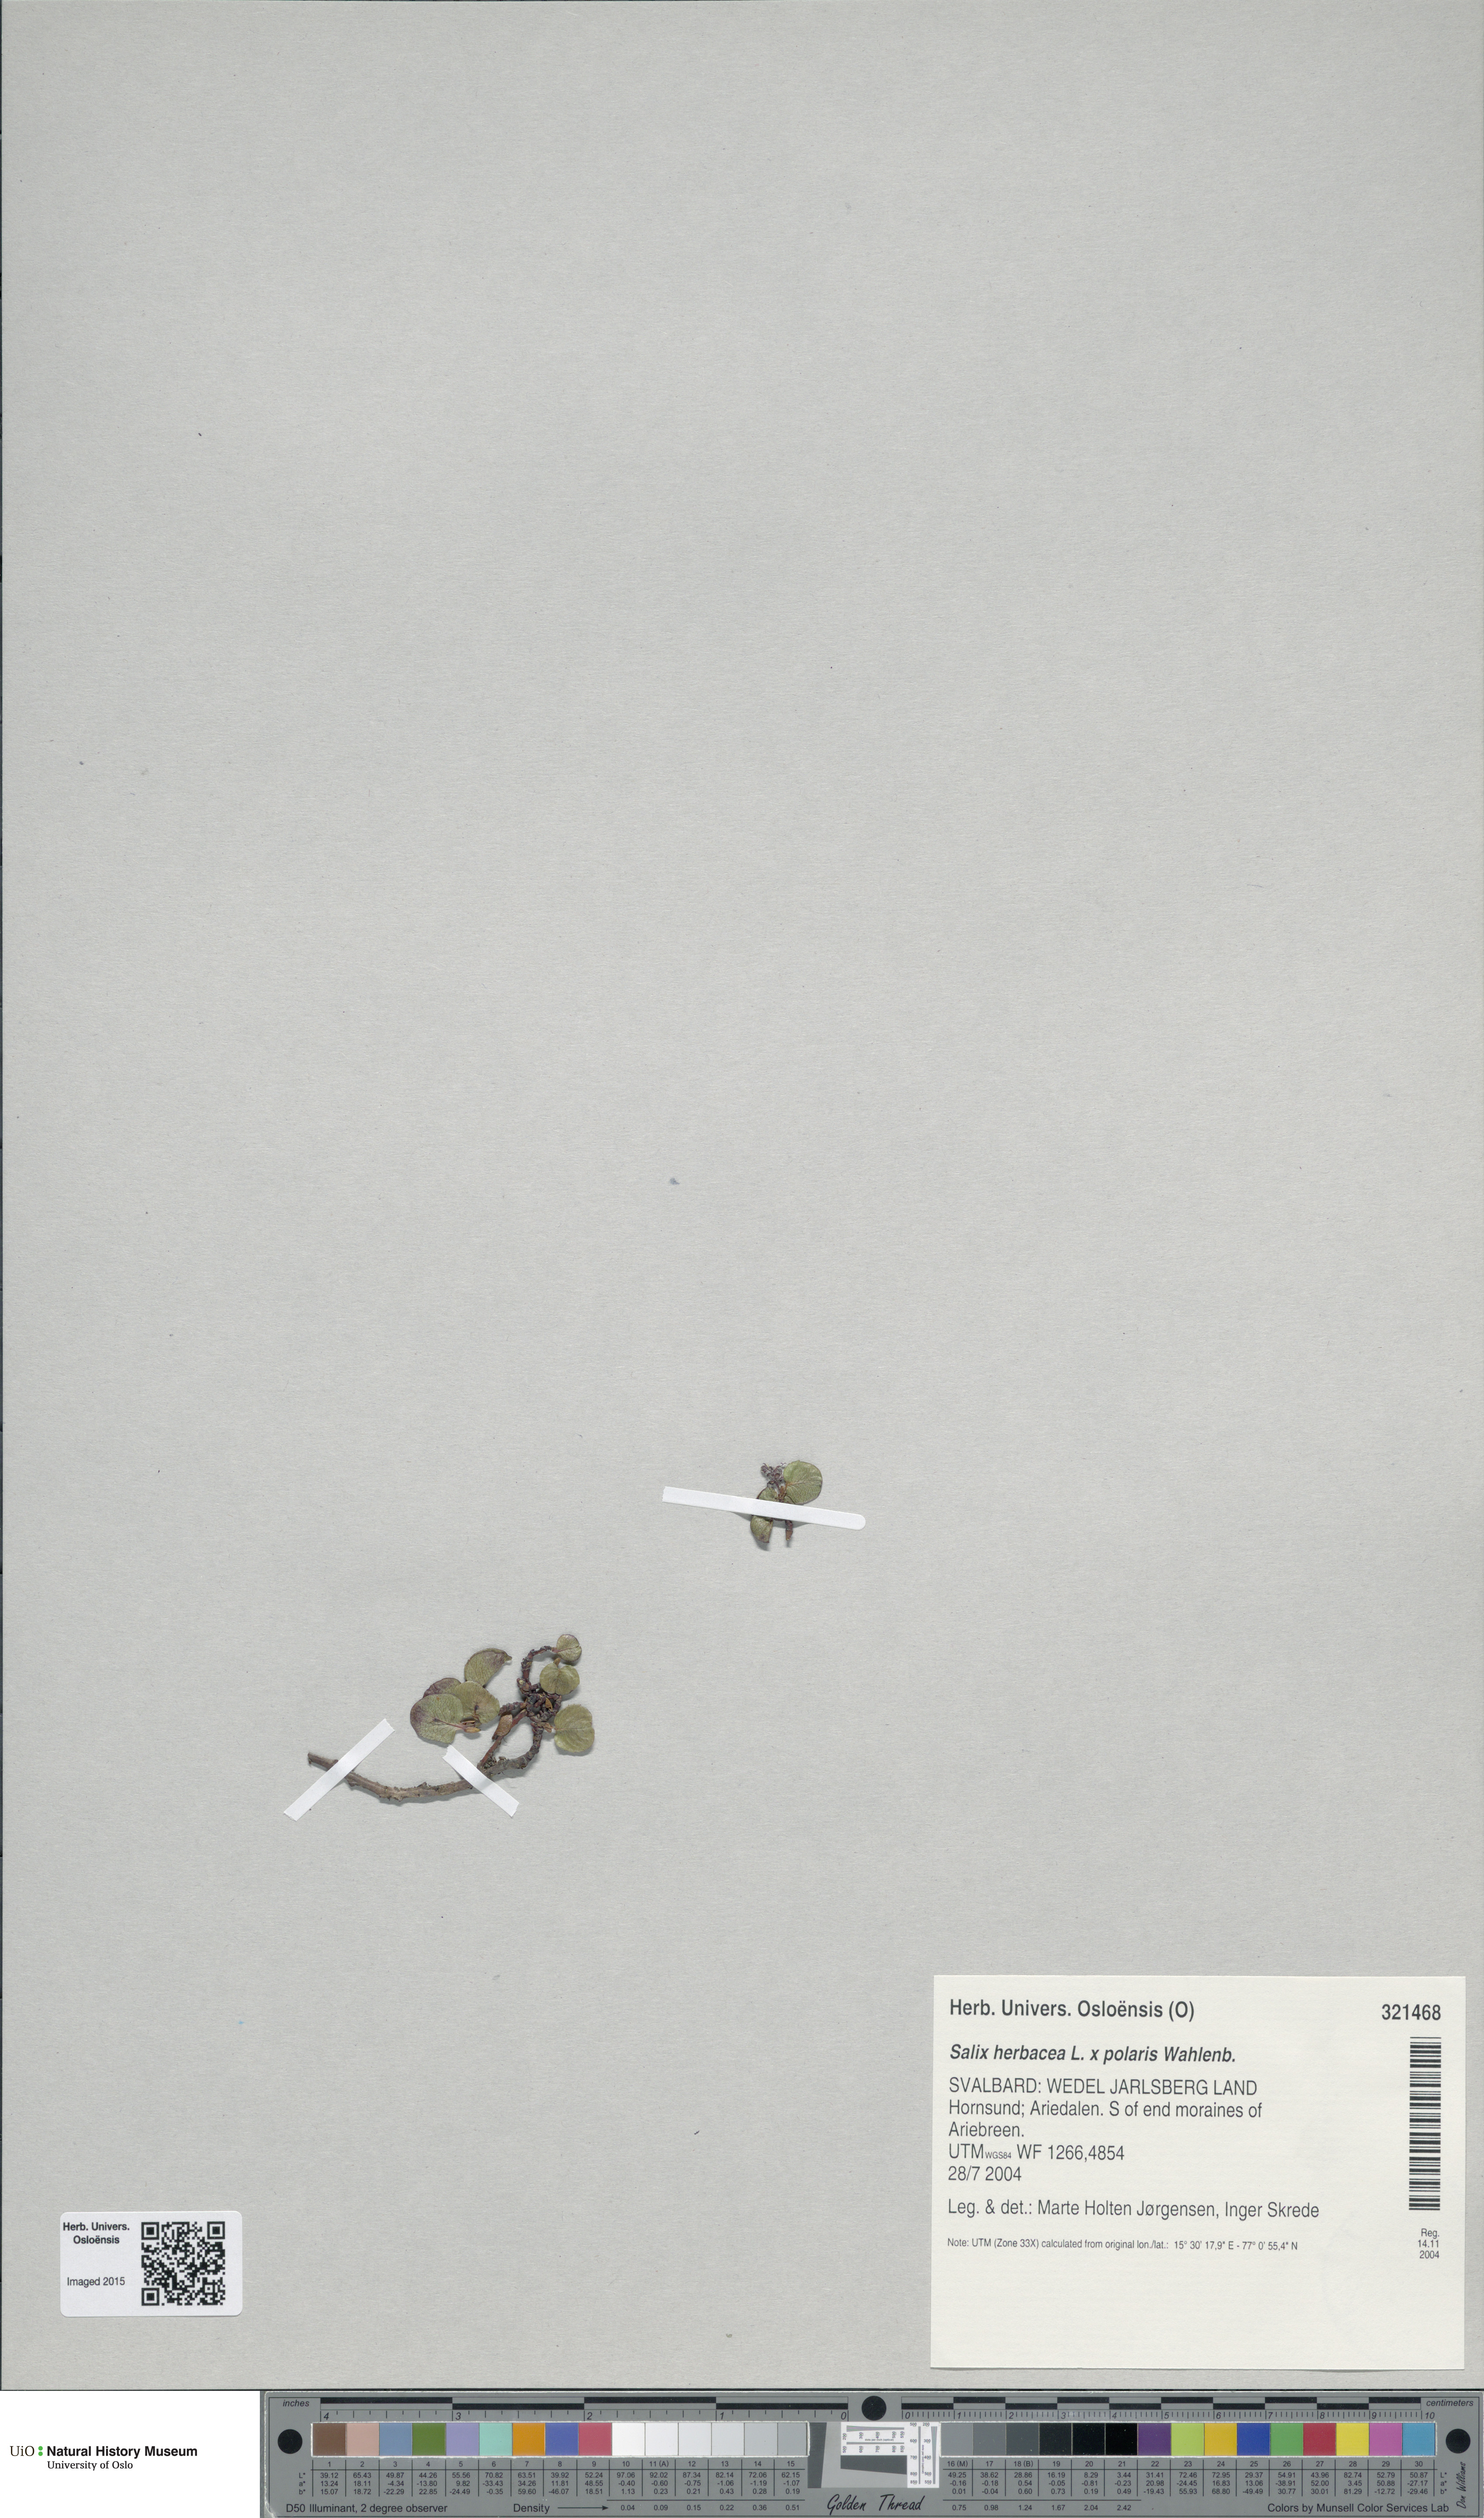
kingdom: Plantae
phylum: Tracheophyta
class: Magnoliopsida
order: Malpighiales
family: Salicaceae
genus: Salix
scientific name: Salix
